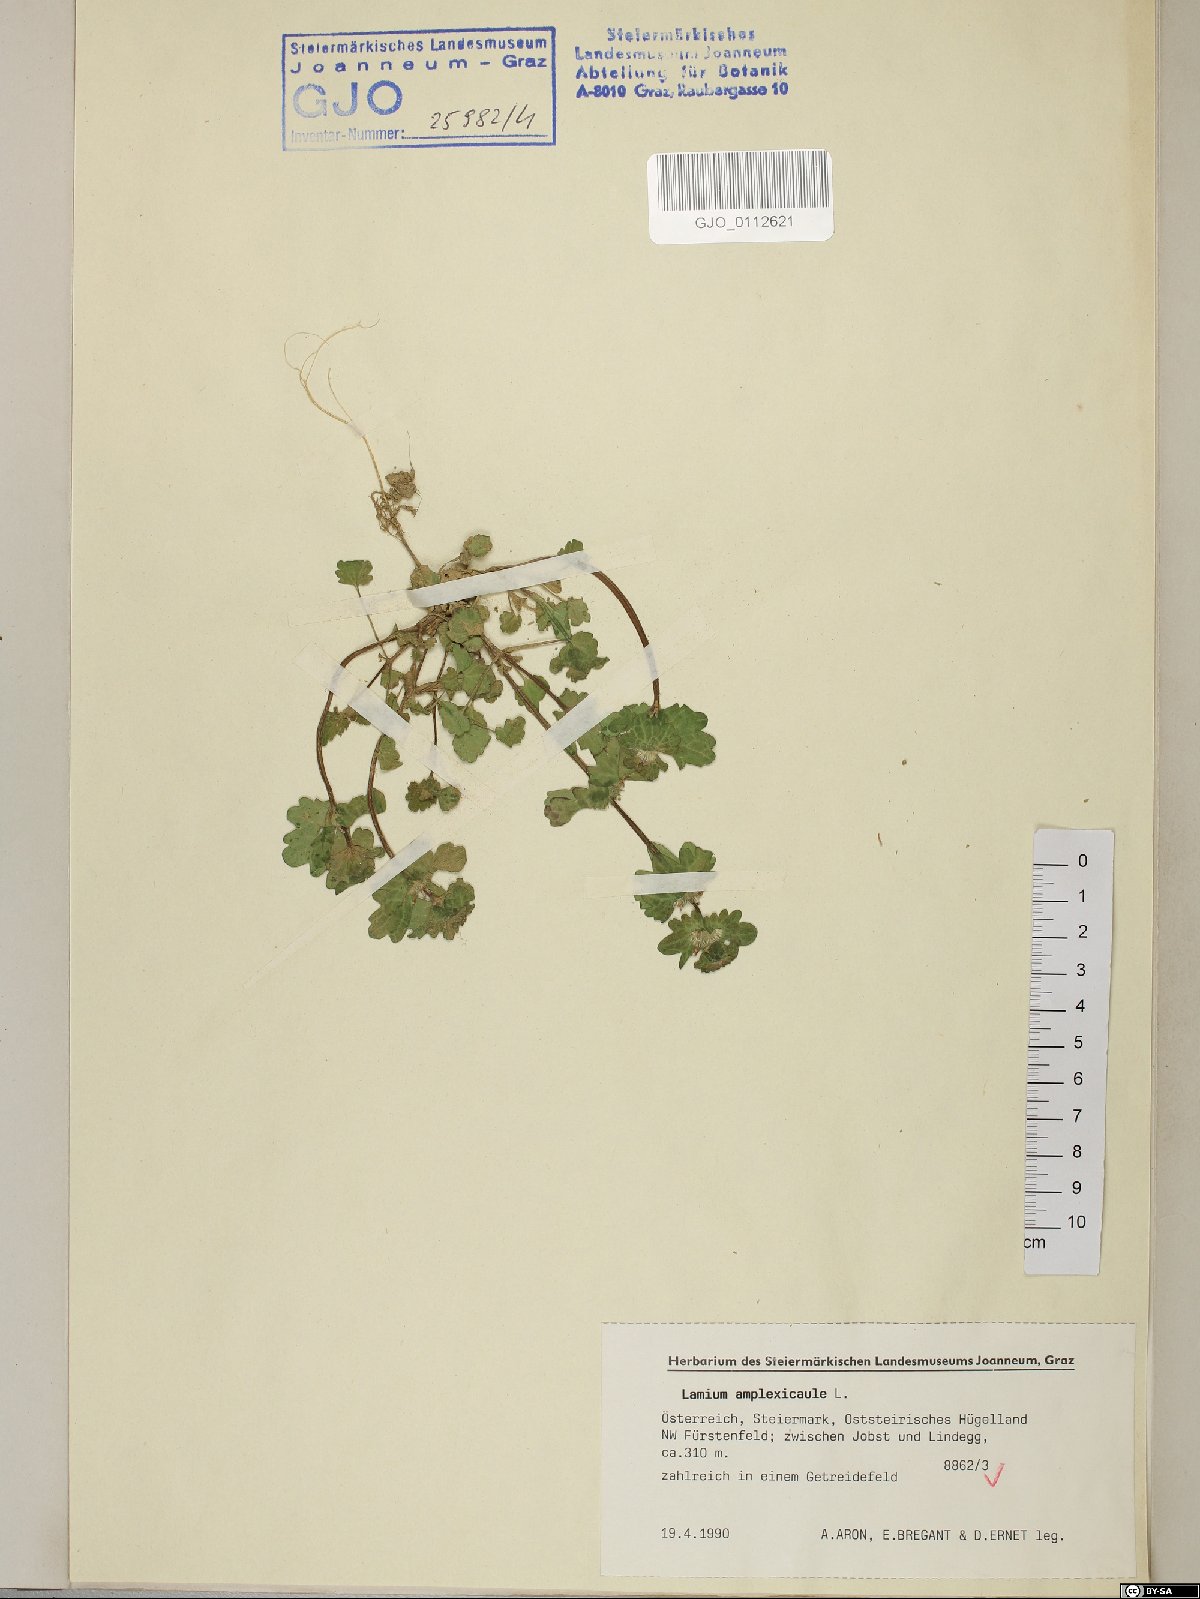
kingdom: Plantae
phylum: Tracheophyta
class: Magnoliopsida
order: Lamiales
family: Lamiaceae
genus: Lamium
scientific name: Lamium amplexicaule
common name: Henbit dead-nettle
